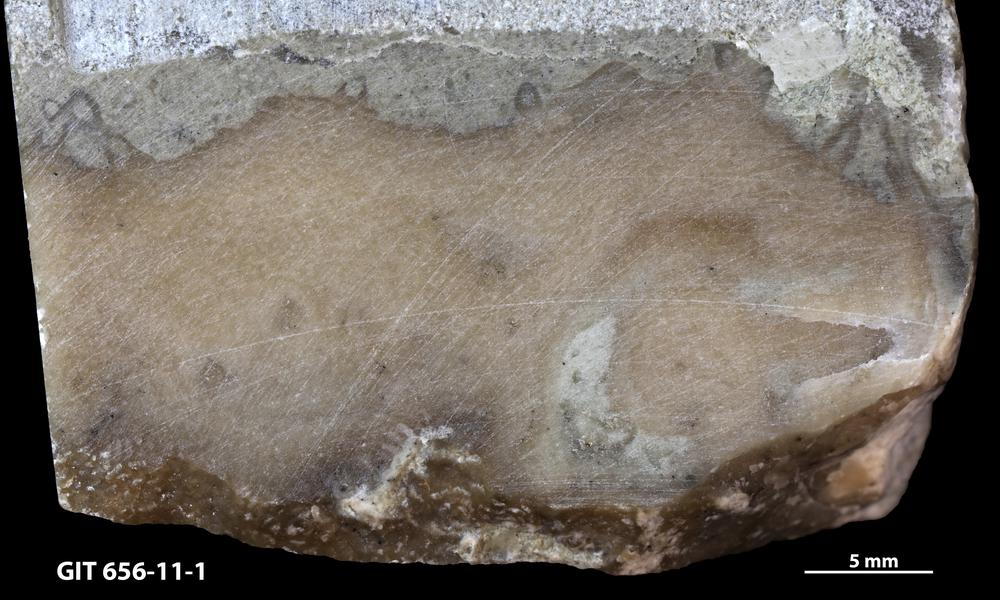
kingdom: Animalia
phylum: Cnidaria
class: Anthozoa
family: Alveolitidae
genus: Kitakamiia
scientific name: Kitakamiia
